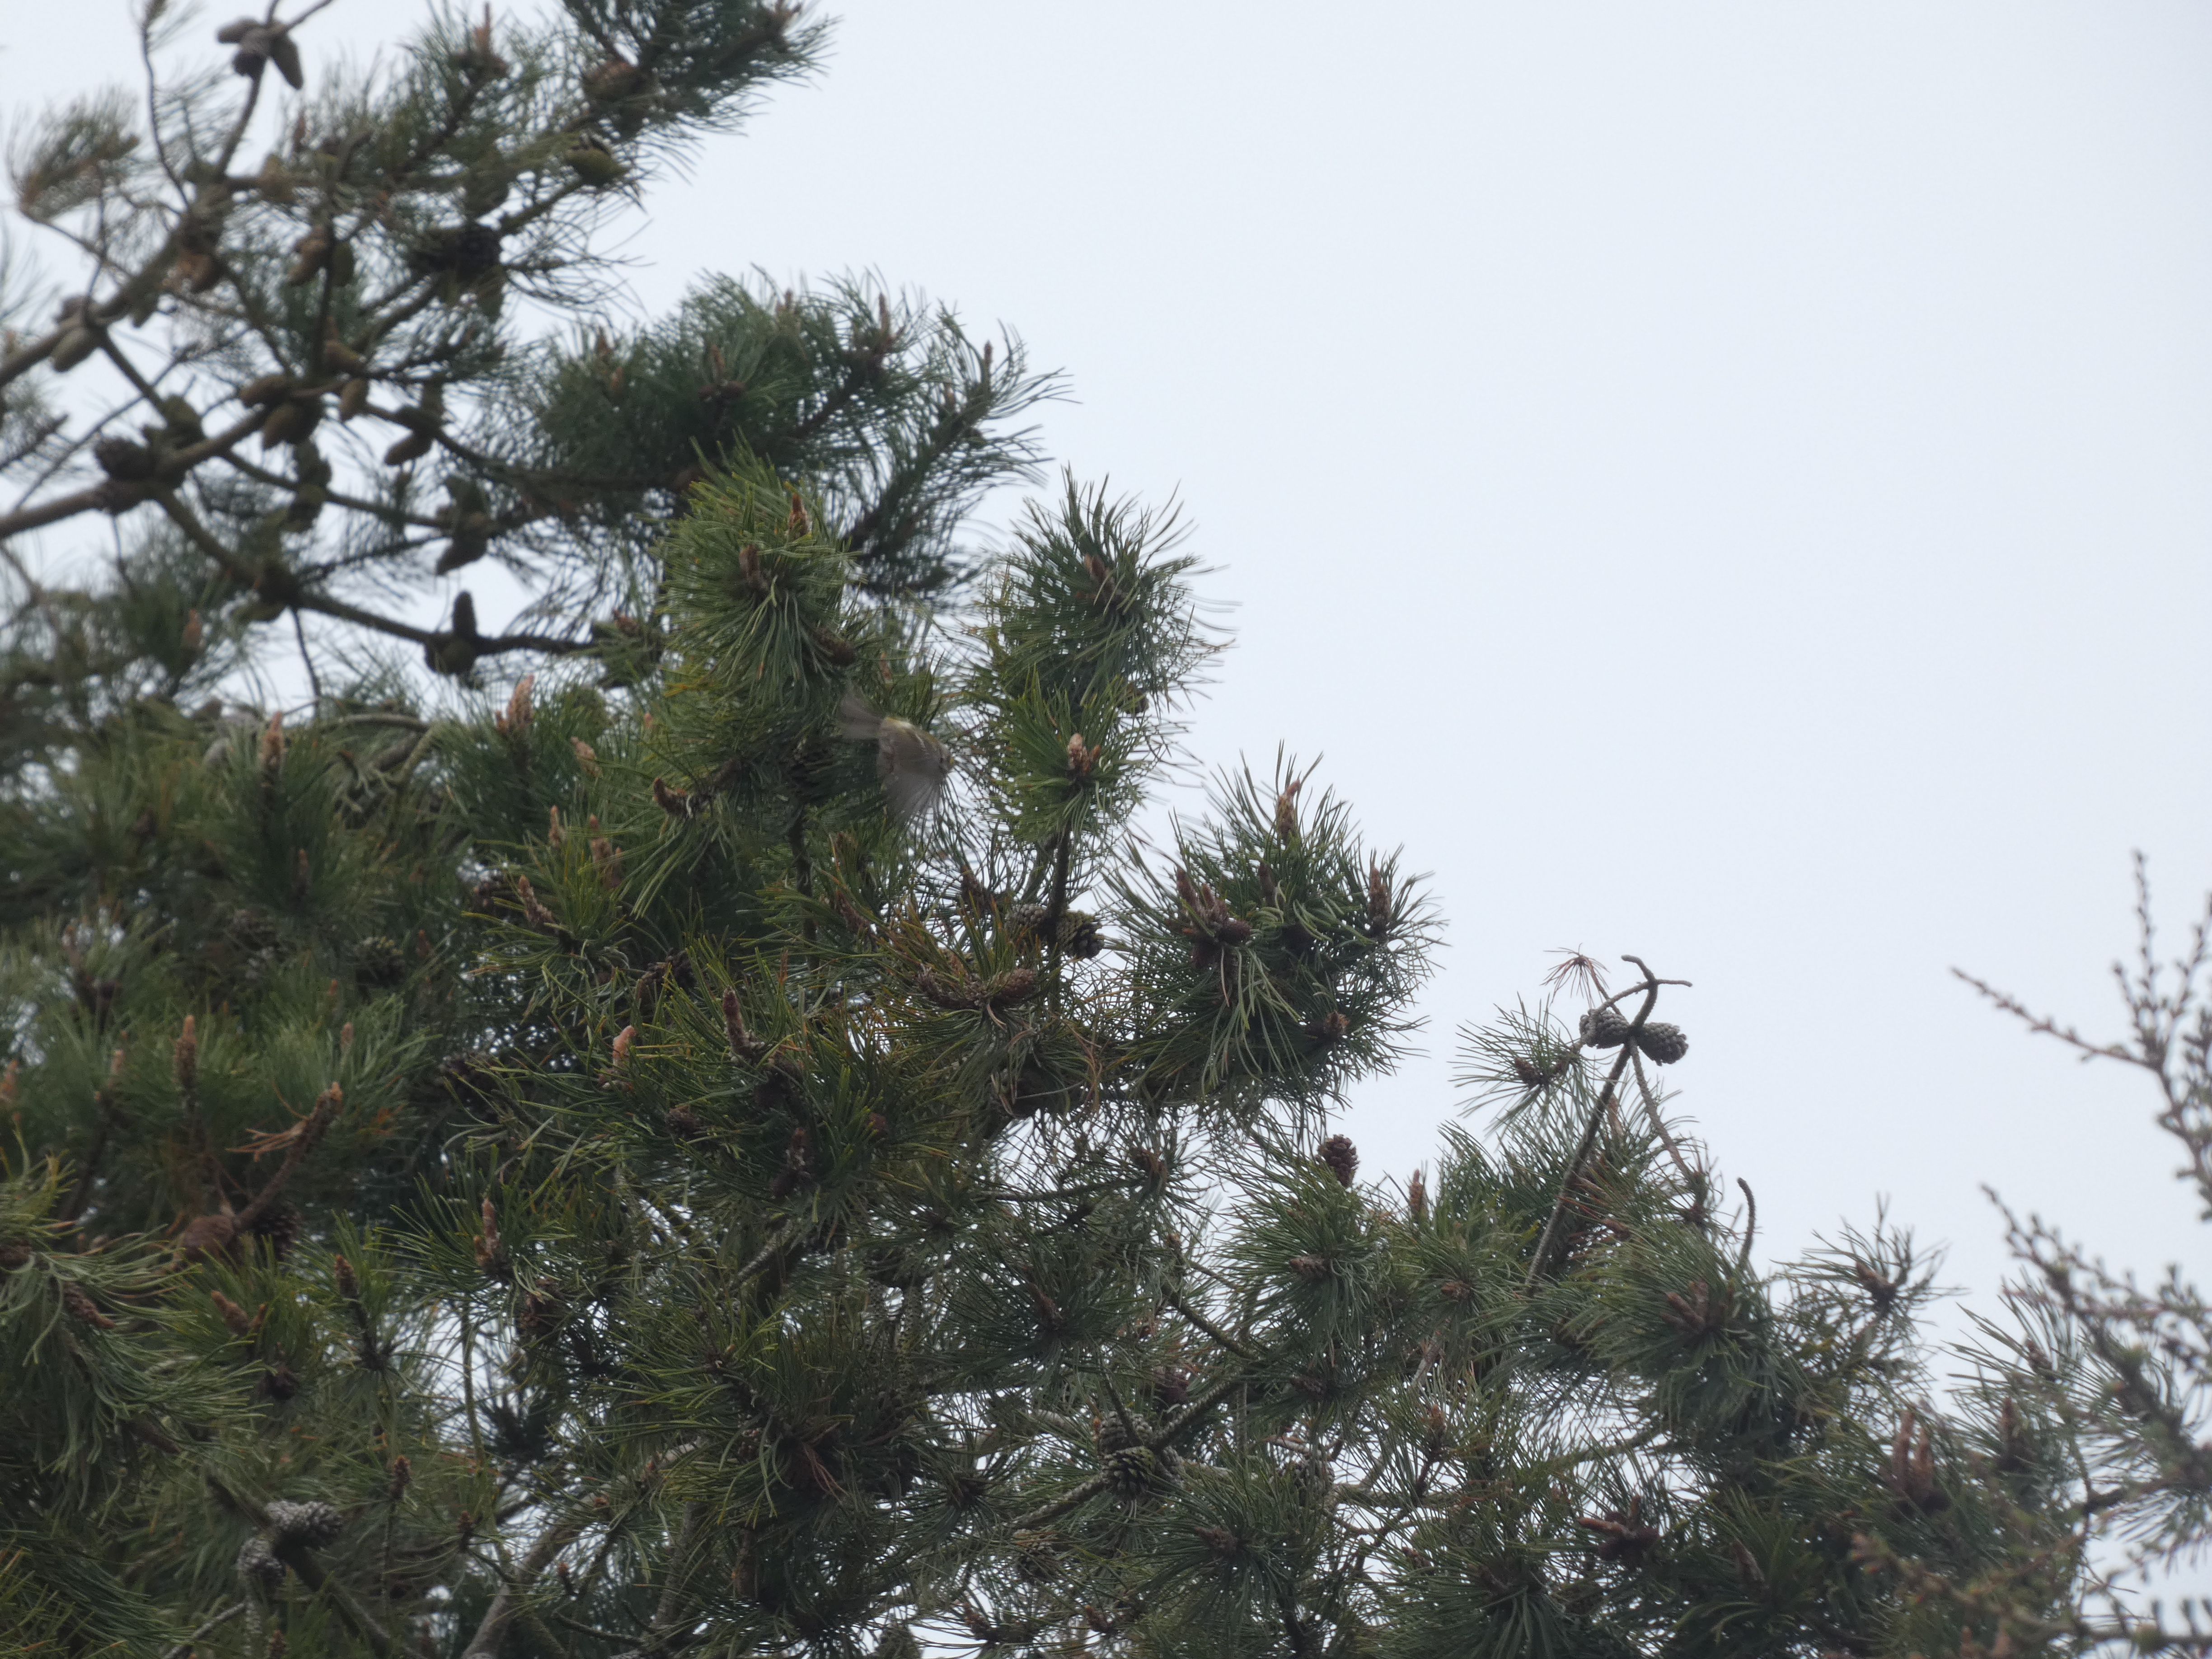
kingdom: Animalia
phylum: Chordata
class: Aves
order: Passeriformes
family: Regulidae
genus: Regulus
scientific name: Regulus regulus
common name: Fuglekonge
